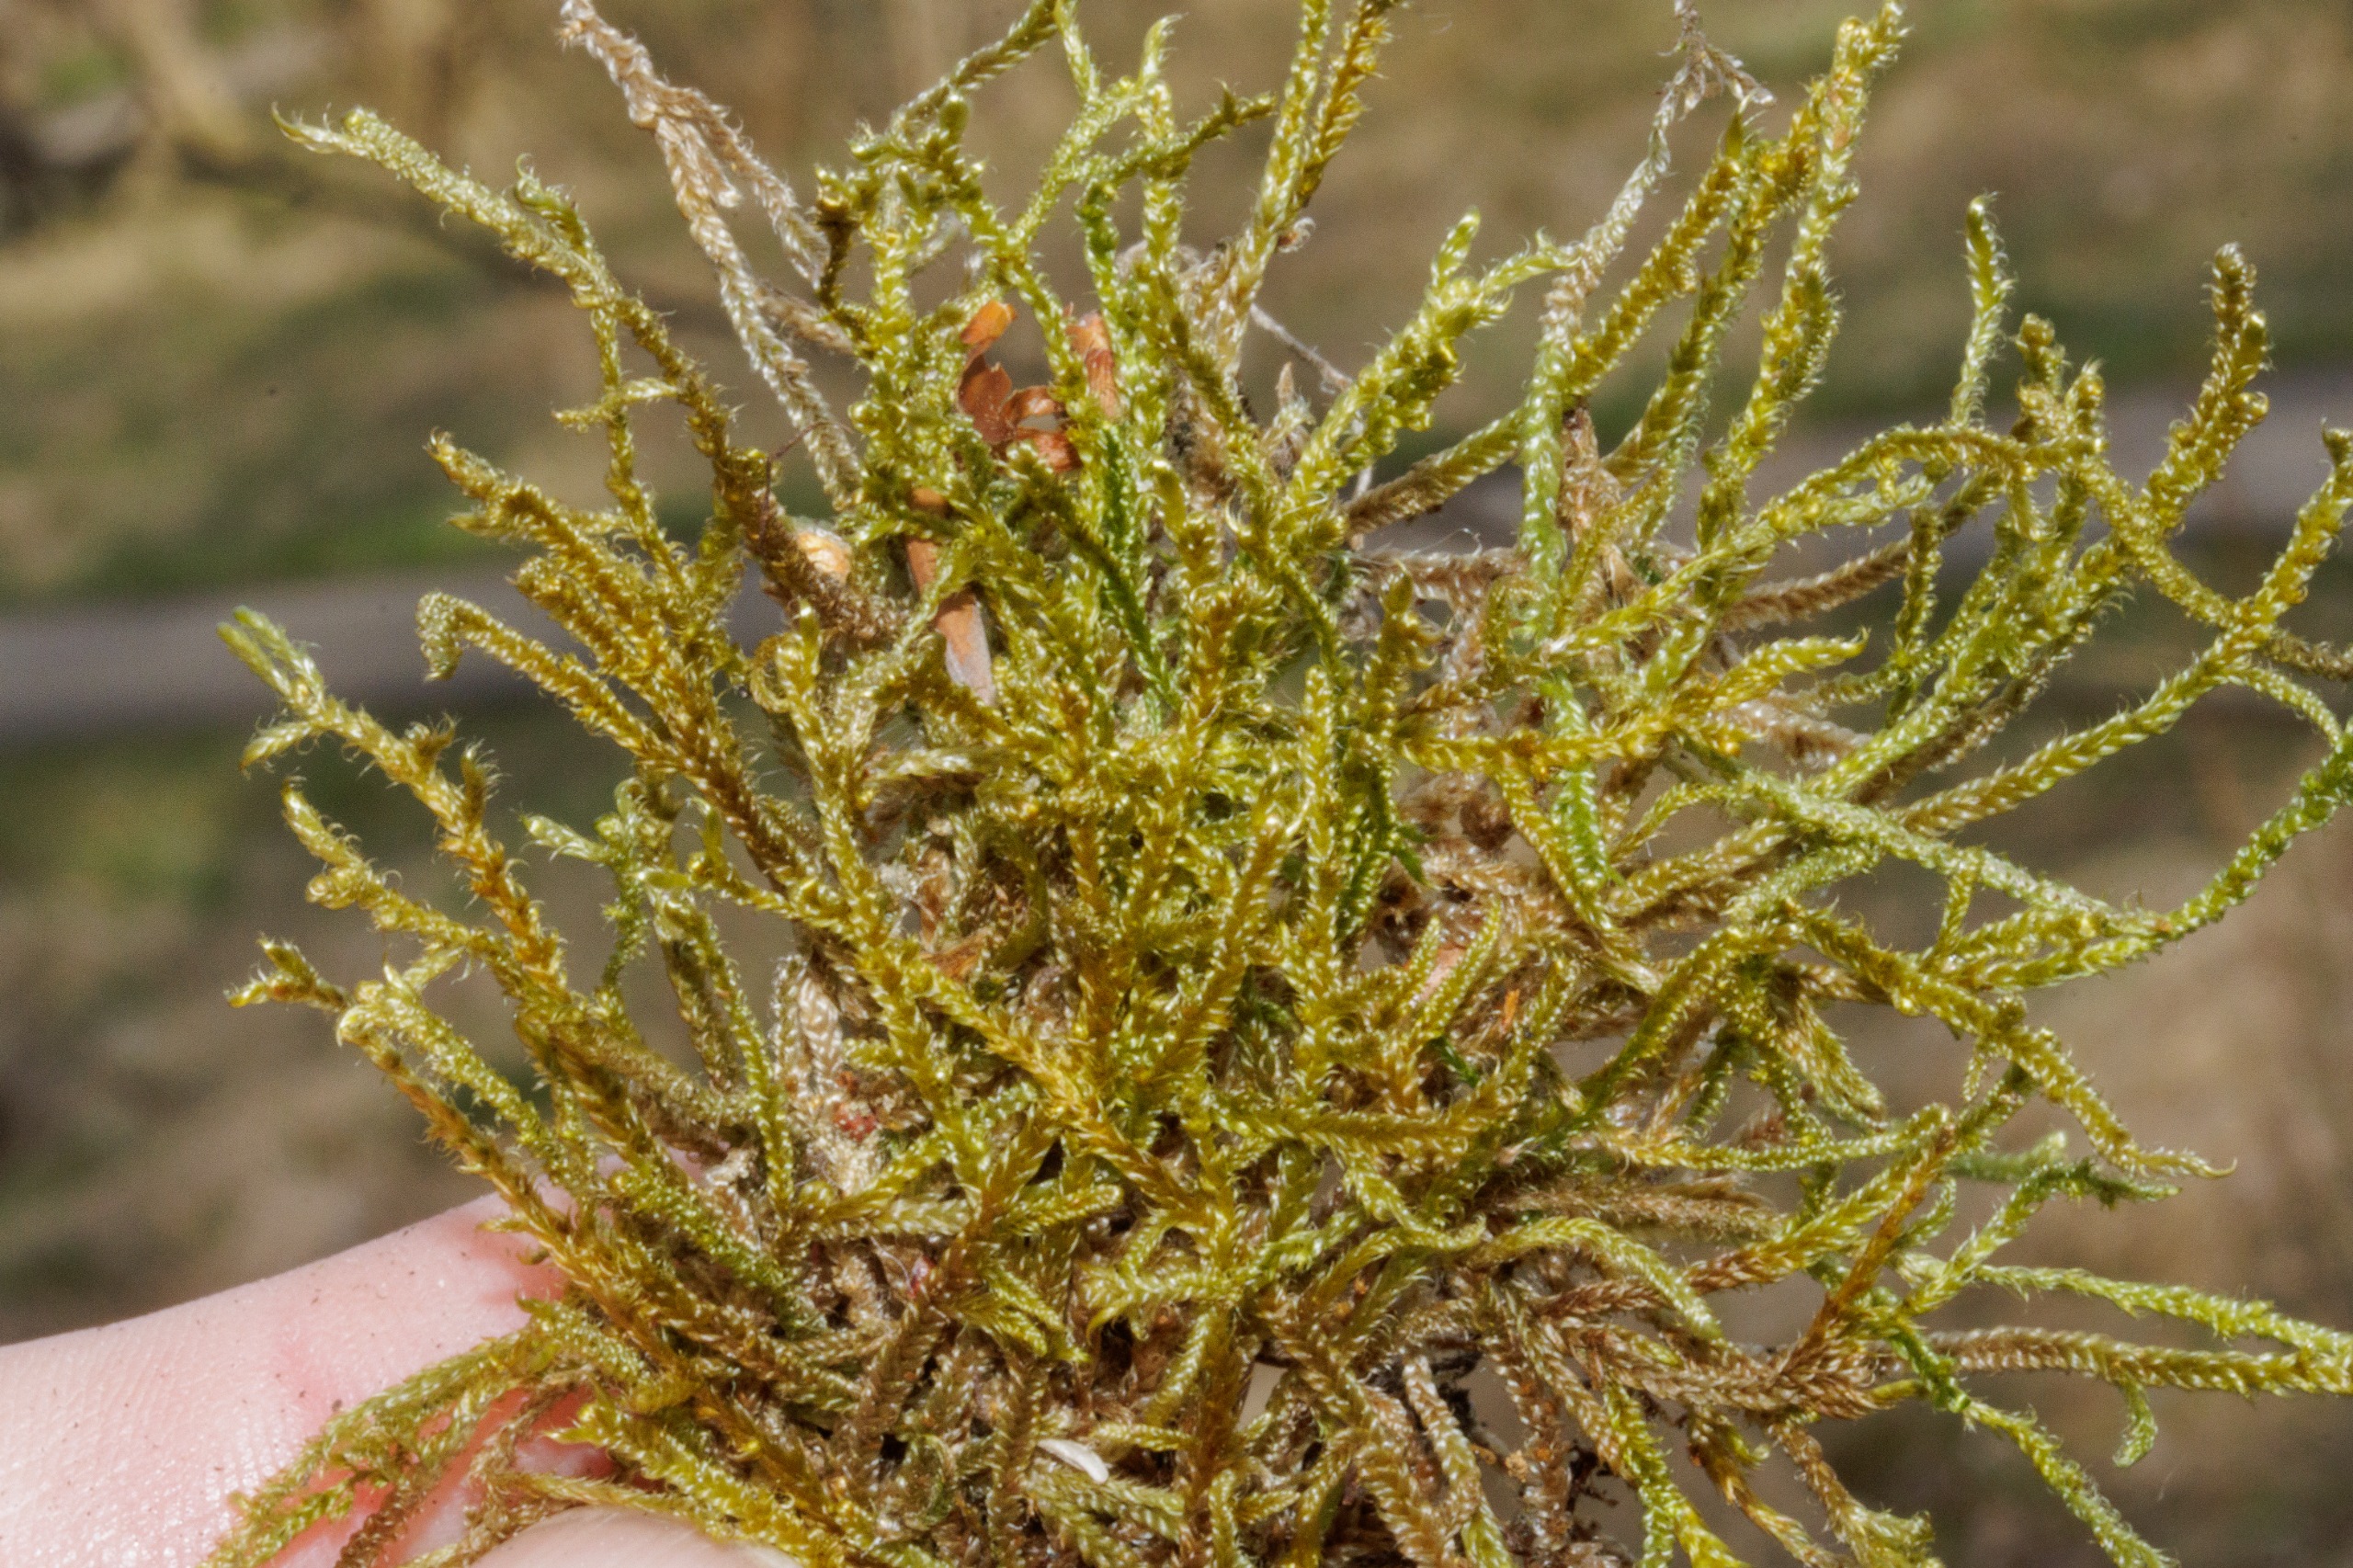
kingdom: Plantae
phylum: Bryophyta
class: Bryopsida
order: Hypnales
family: Hypnaceae
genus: Hypnum
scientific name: Hypnum cupressiforme
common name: Almindelig cypresmos
